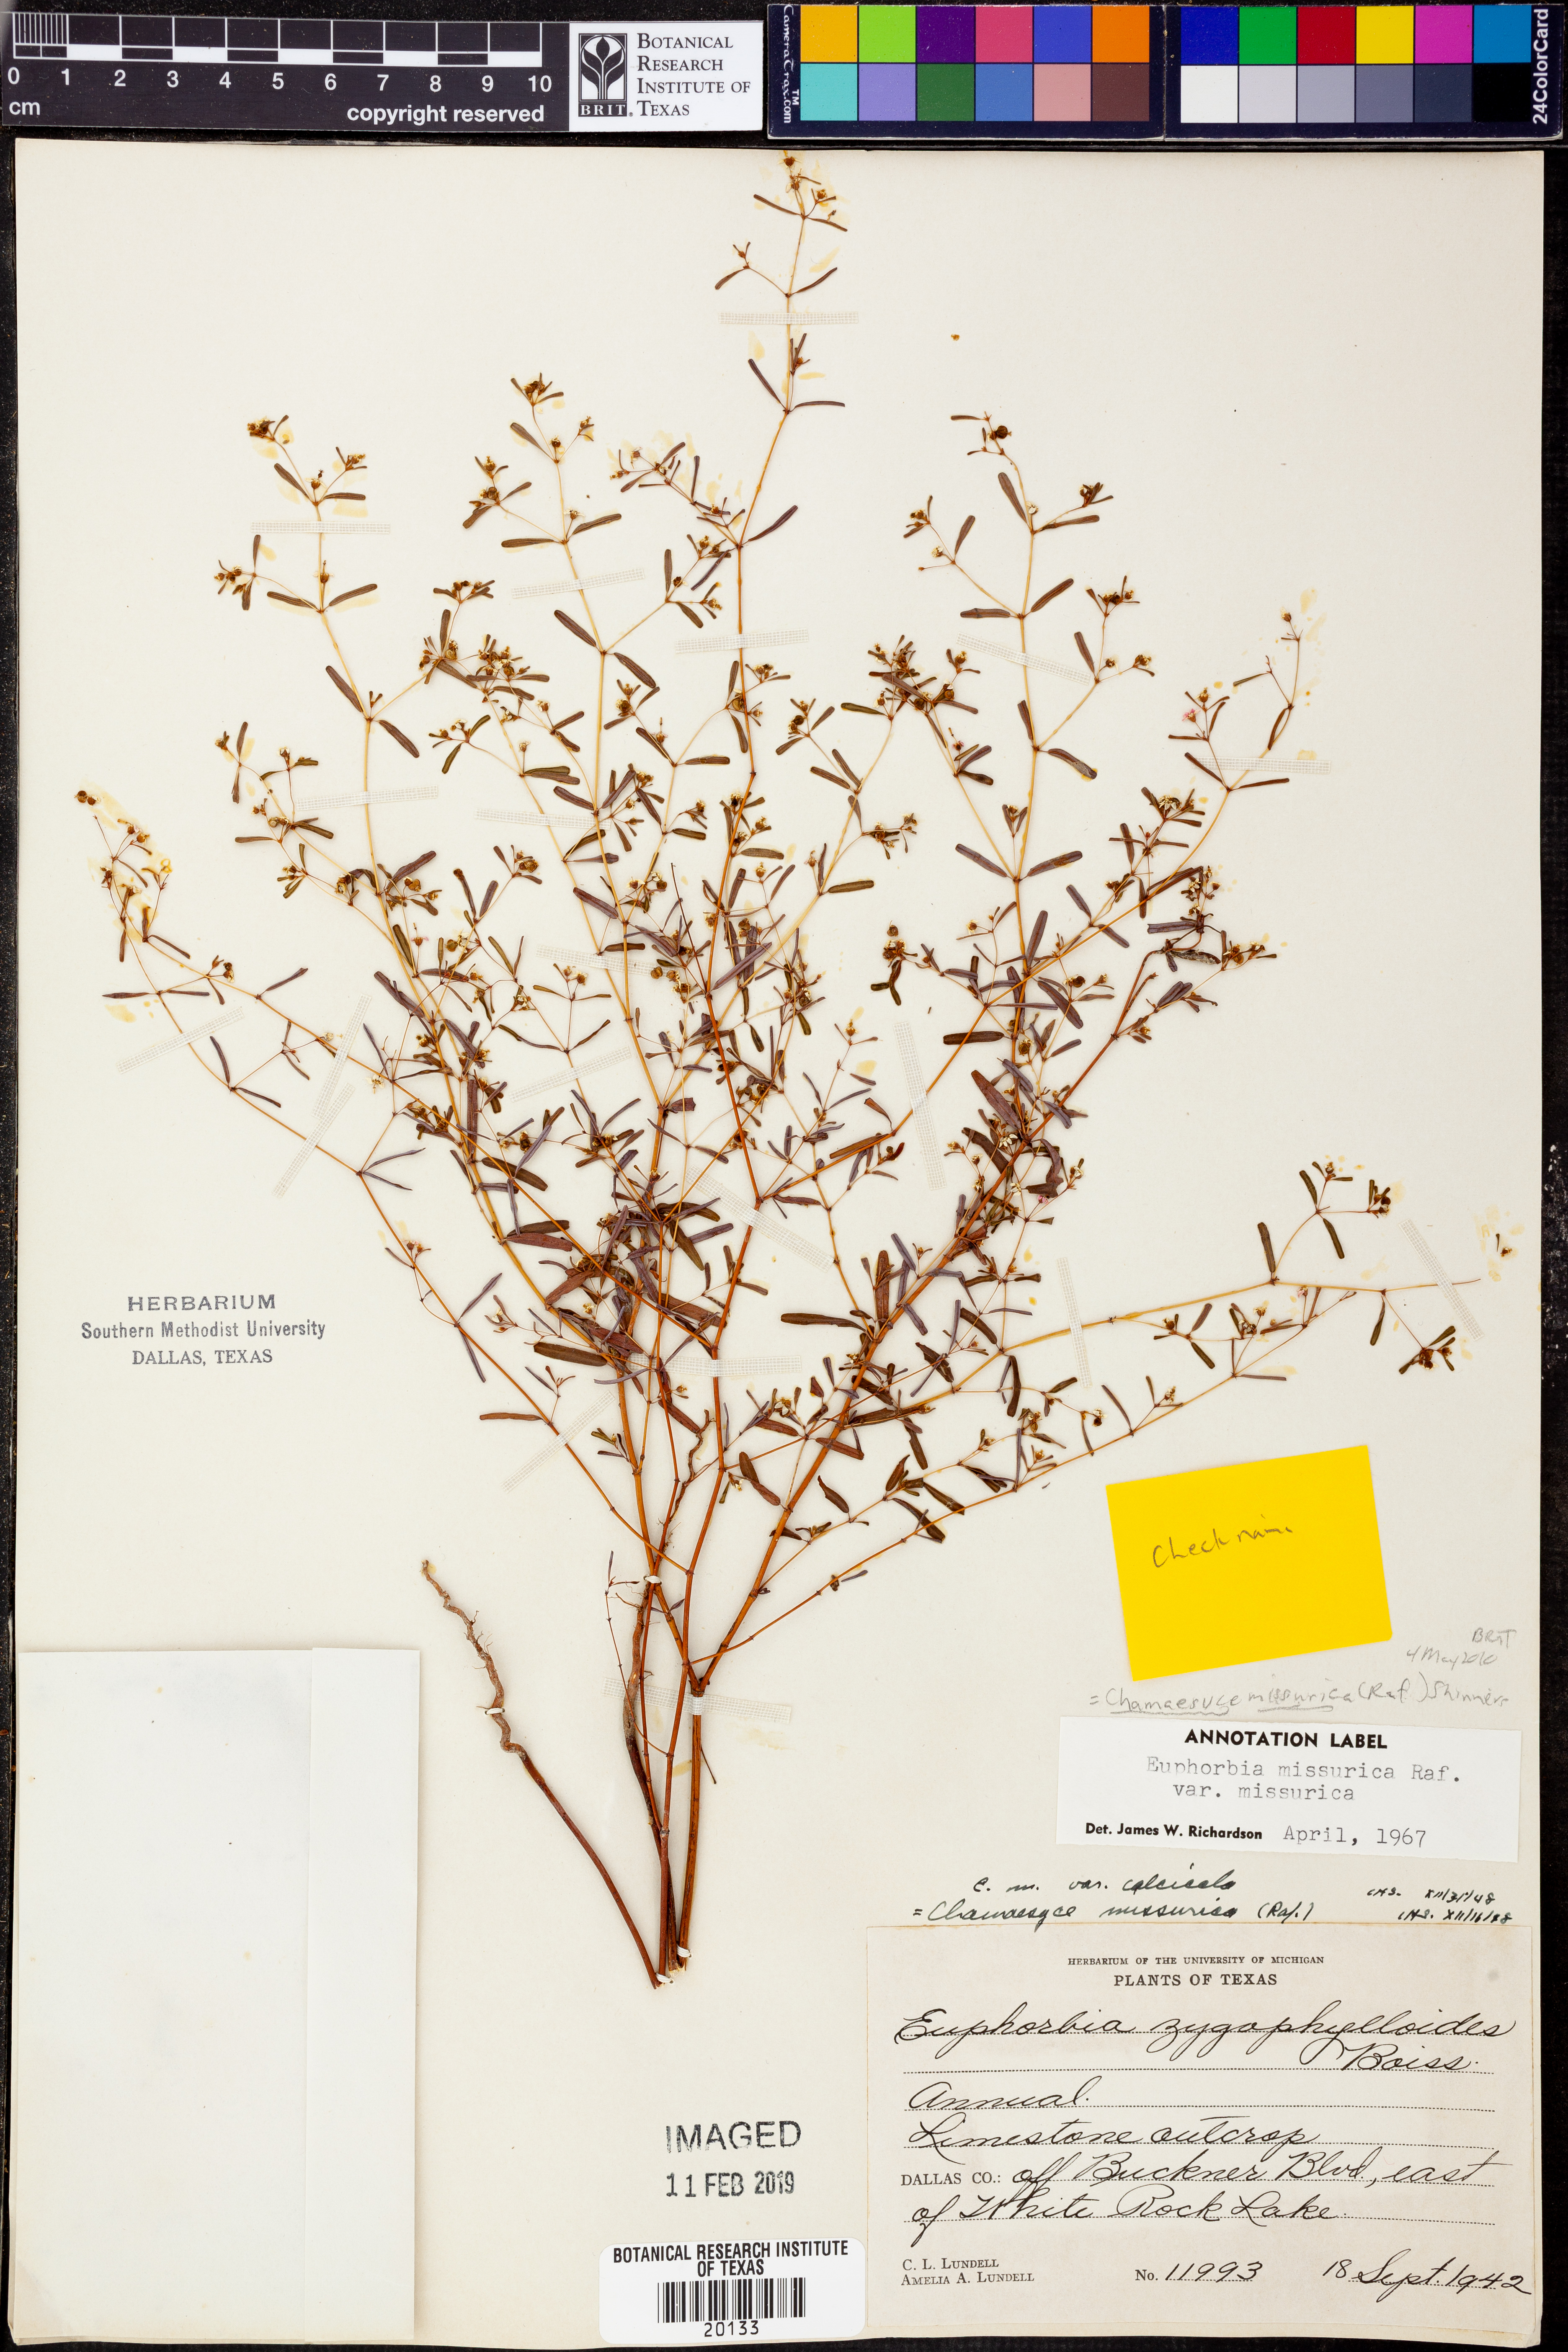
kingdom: Plantae
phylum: Tracheophyta
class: Magnoliopsida
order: Malpighiales
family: Euphorbiaceae
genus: Euphorbia
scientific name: Euphorbia missurica
